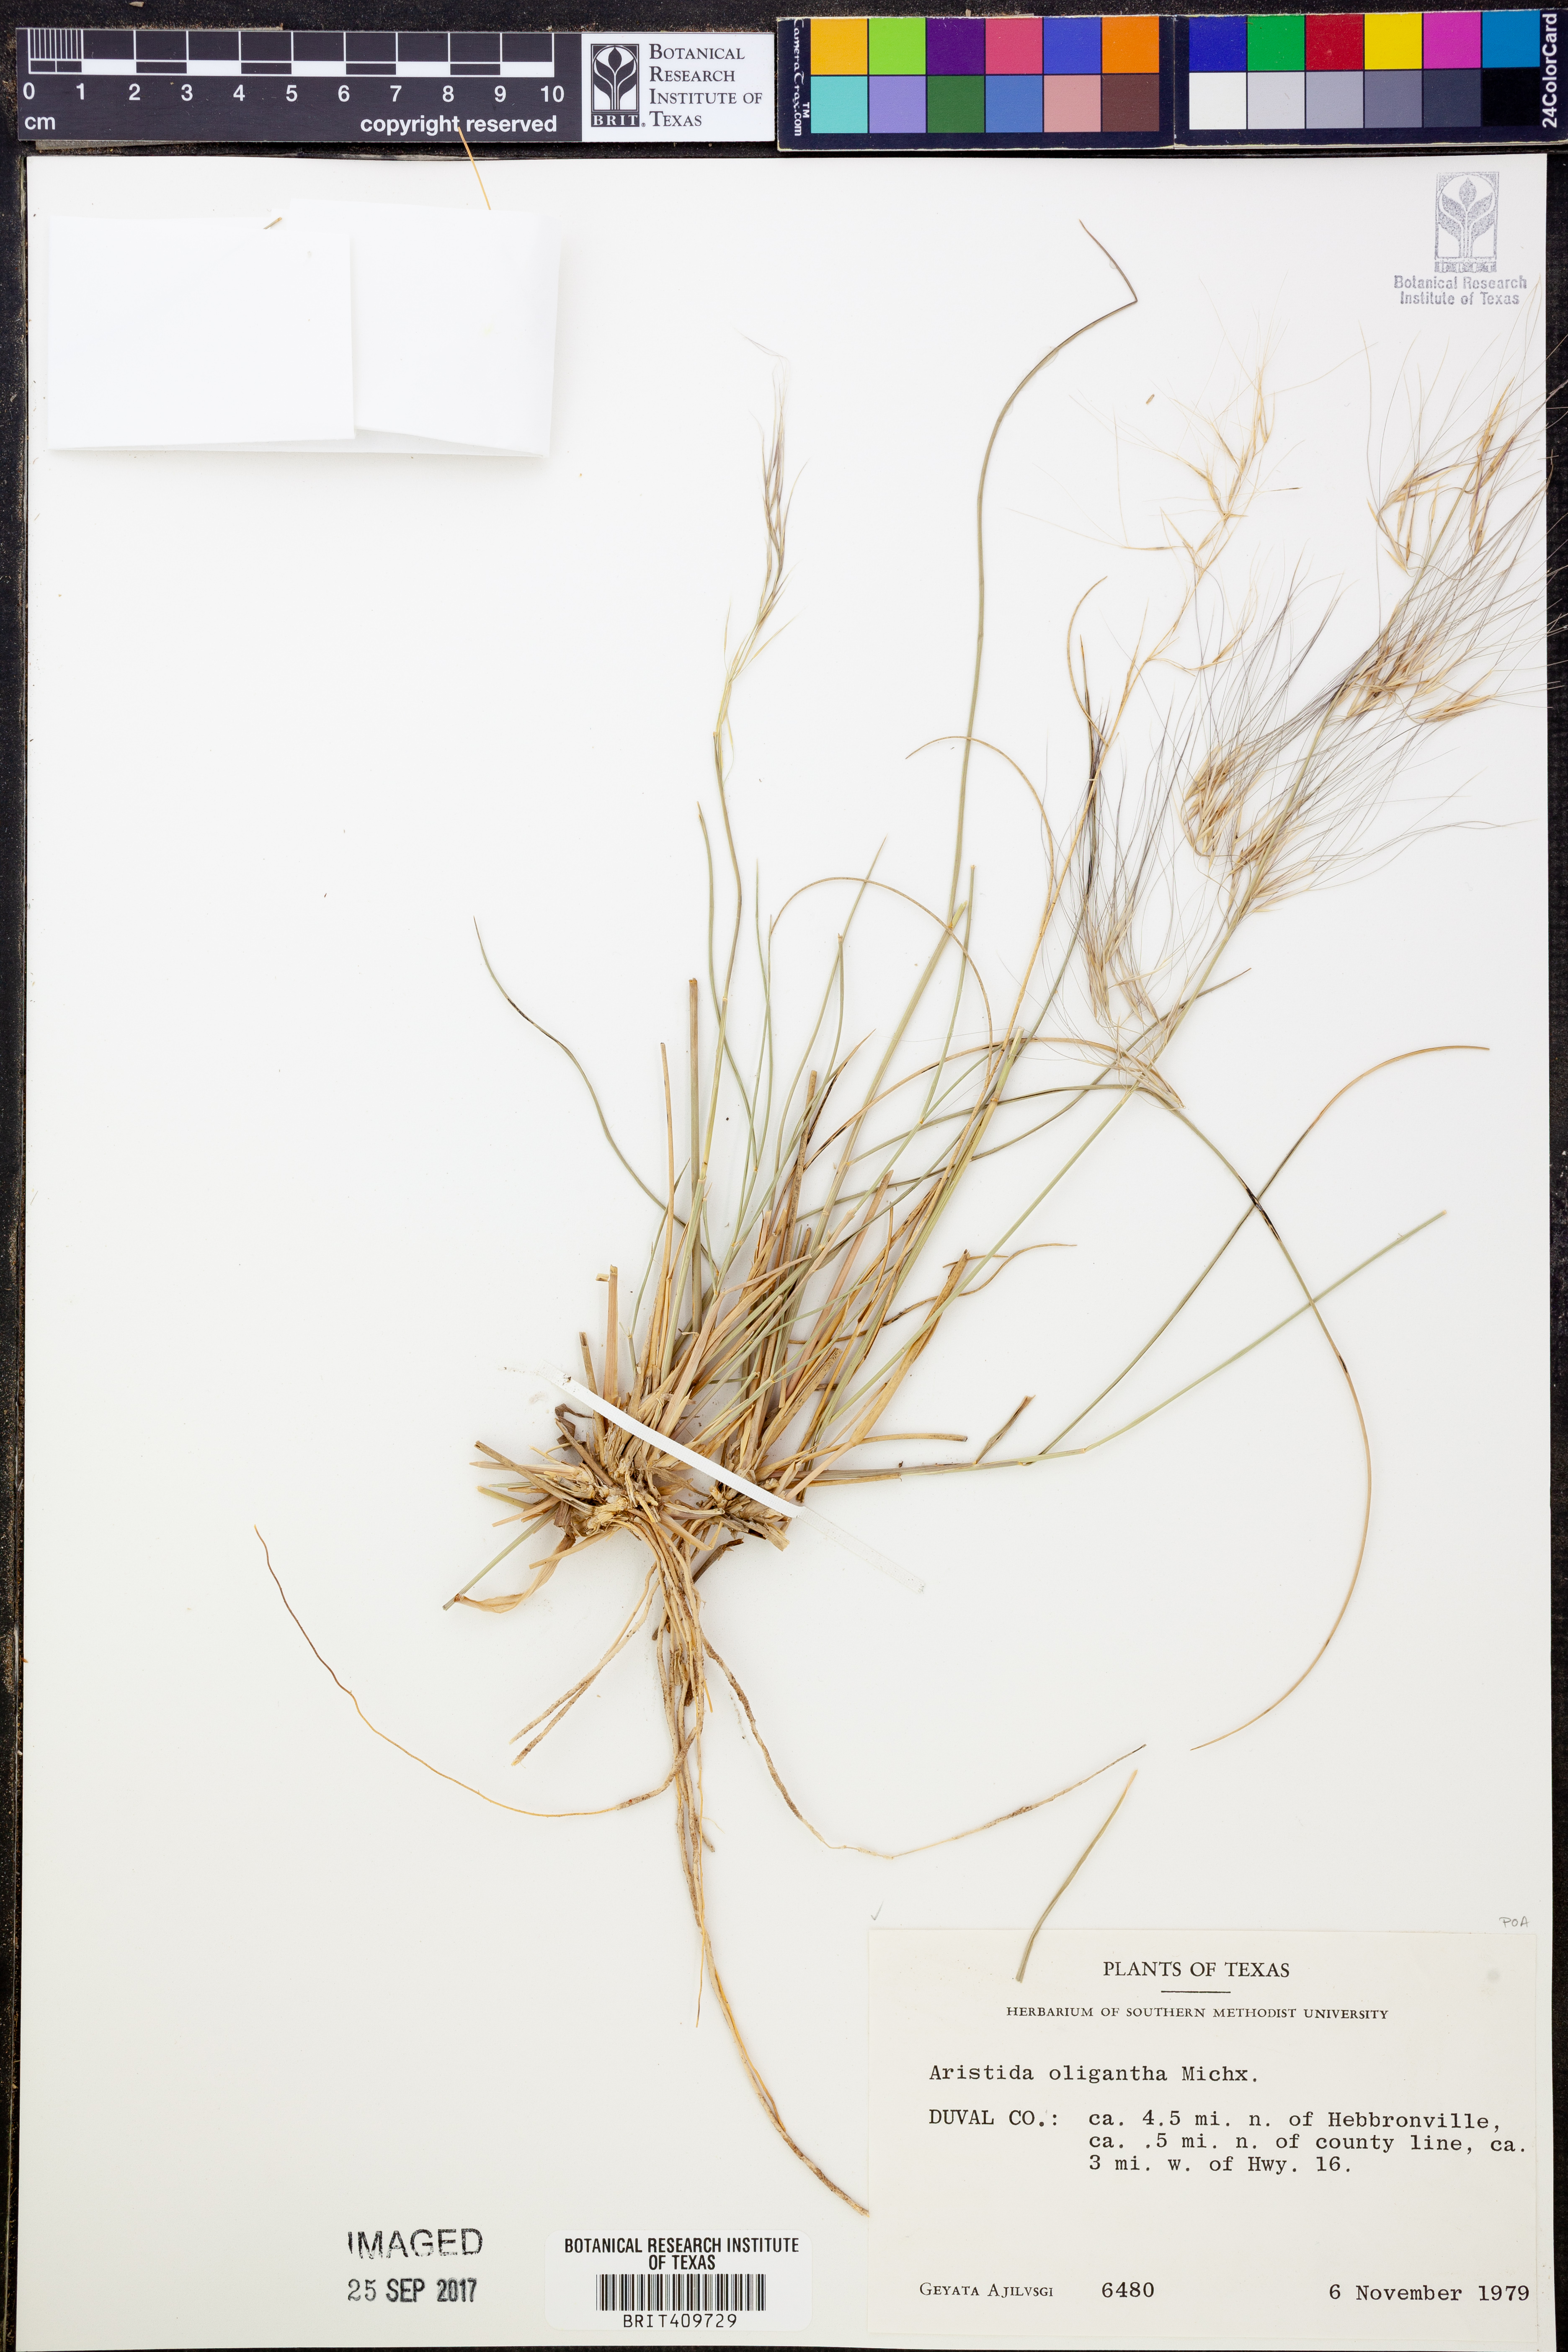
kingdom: Plantae
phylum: Tracheophyta
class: Liliopsida
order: Poales
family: Poaceae
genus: Aristida
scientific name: Aristida oligantha
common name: Few-flowered aristida
